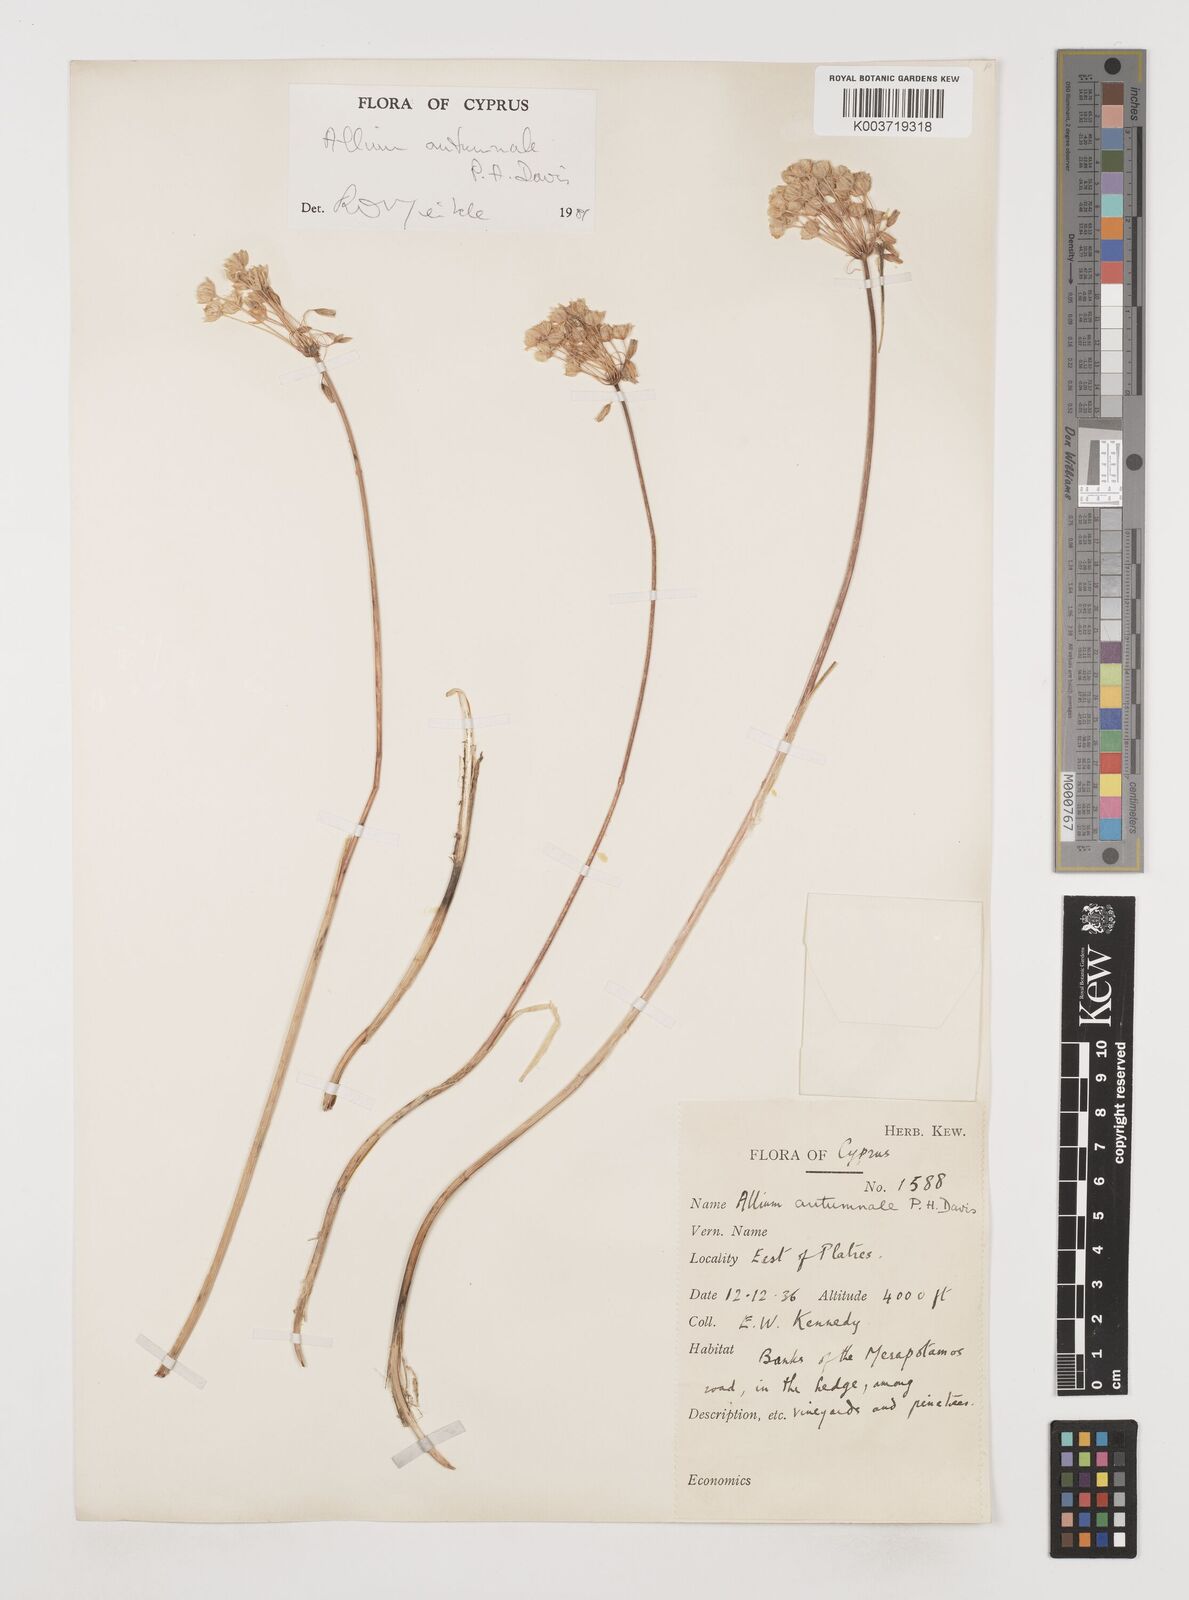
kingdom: Plantae
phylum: Tracheophyta
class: Liliopsida
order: Asparagales
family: Amaryllidaceae
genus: Allium
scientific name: Allium autumnale
